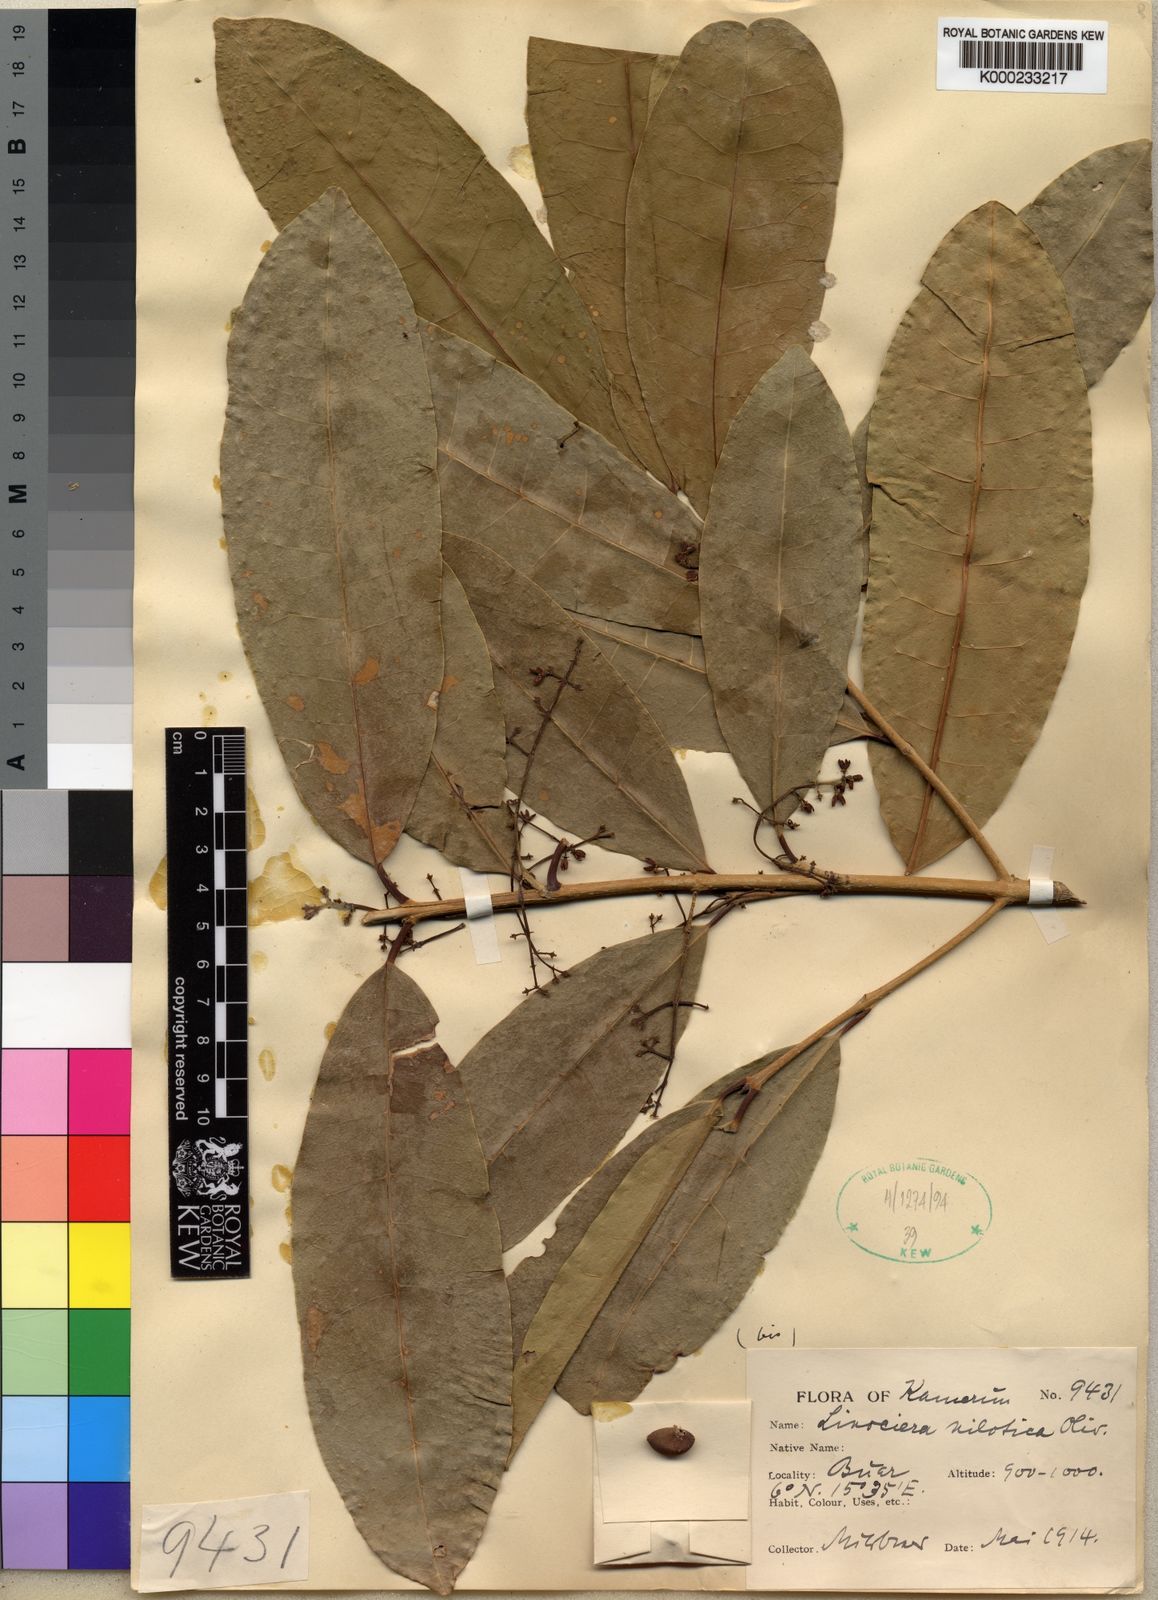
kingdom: Plantae
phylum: Tracheophyta
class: Magnoliopsida
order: Lamiales
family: Oleaceae
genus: Noronhia
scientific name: Noronhia nilotica
